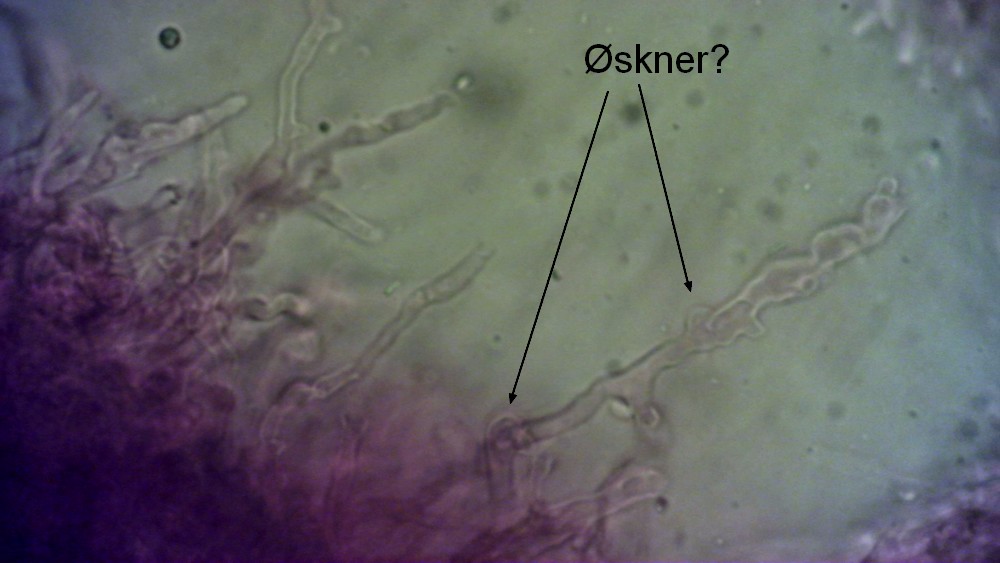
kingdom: Fungi
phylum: Basidiomycota
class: Agaricomycetes
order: Agaricales
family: Tricholomataceae
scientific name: Tricholomataceae
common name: ridderhatfamilien
